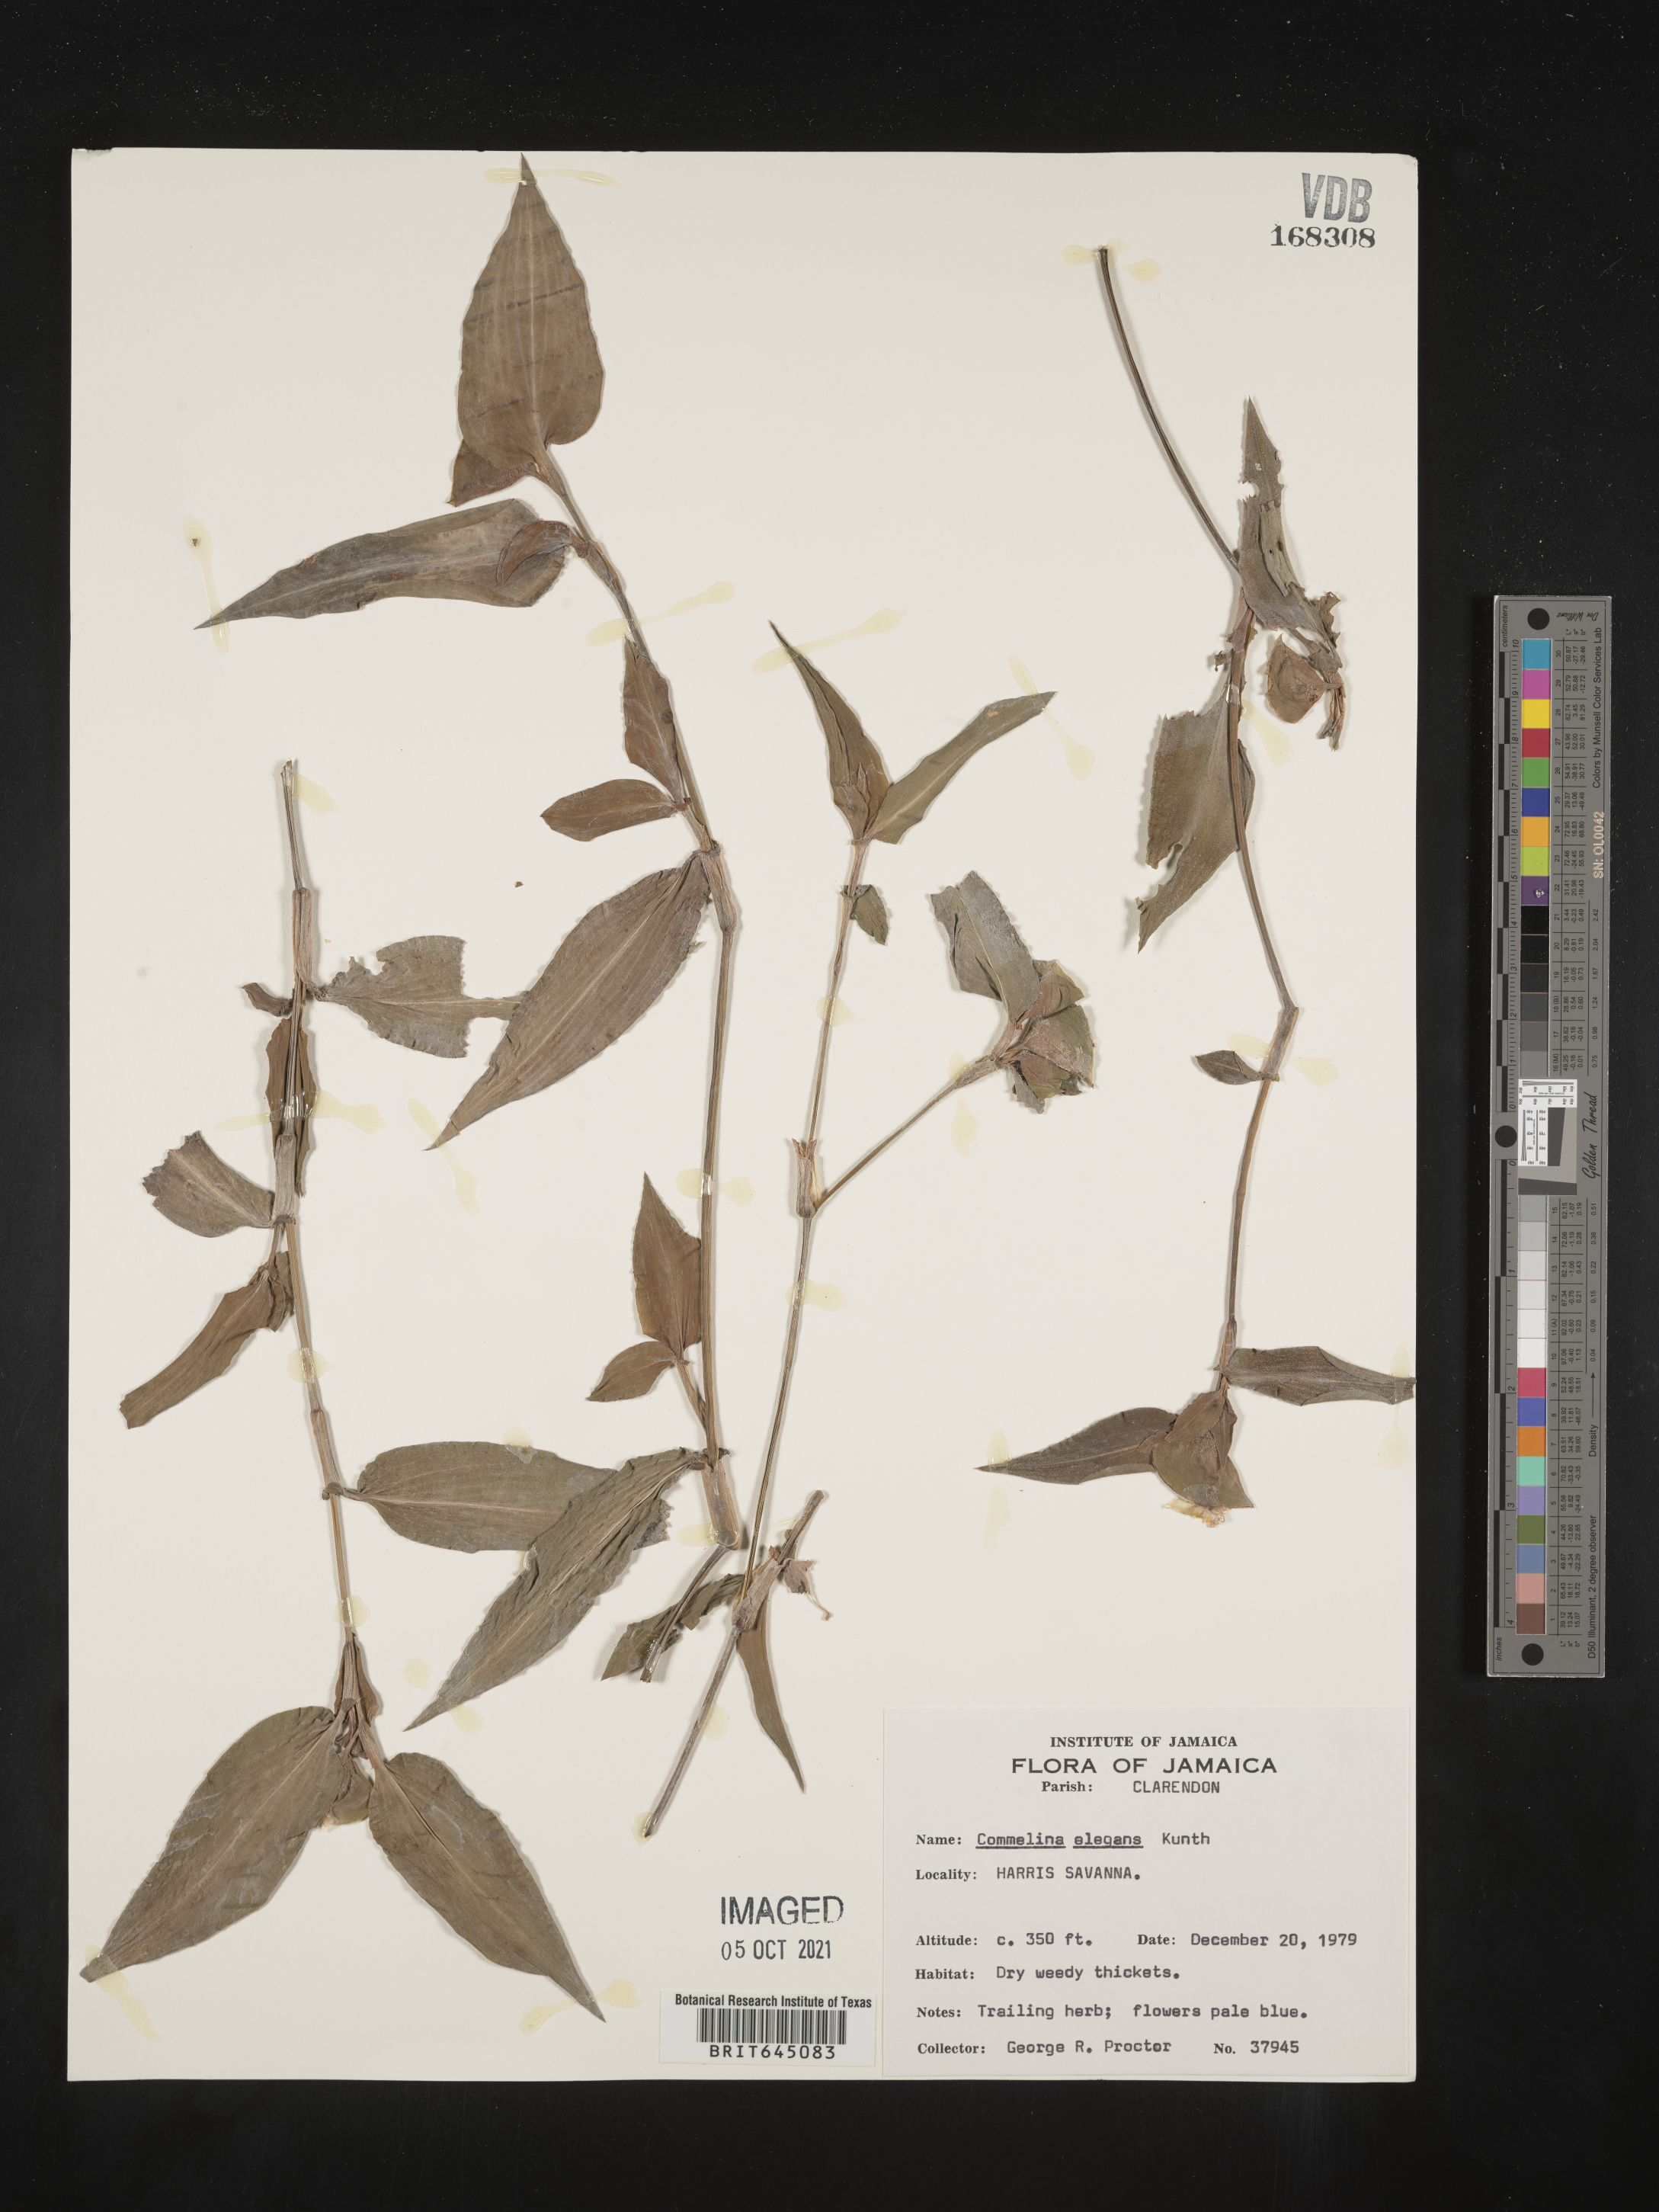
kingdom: Plantae
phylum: Tracheophyta
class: Liliopsida
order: Commelinales
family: Commelinaceae
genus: Commelina
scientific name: Commelina erecta
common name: Blousel blommetjie
